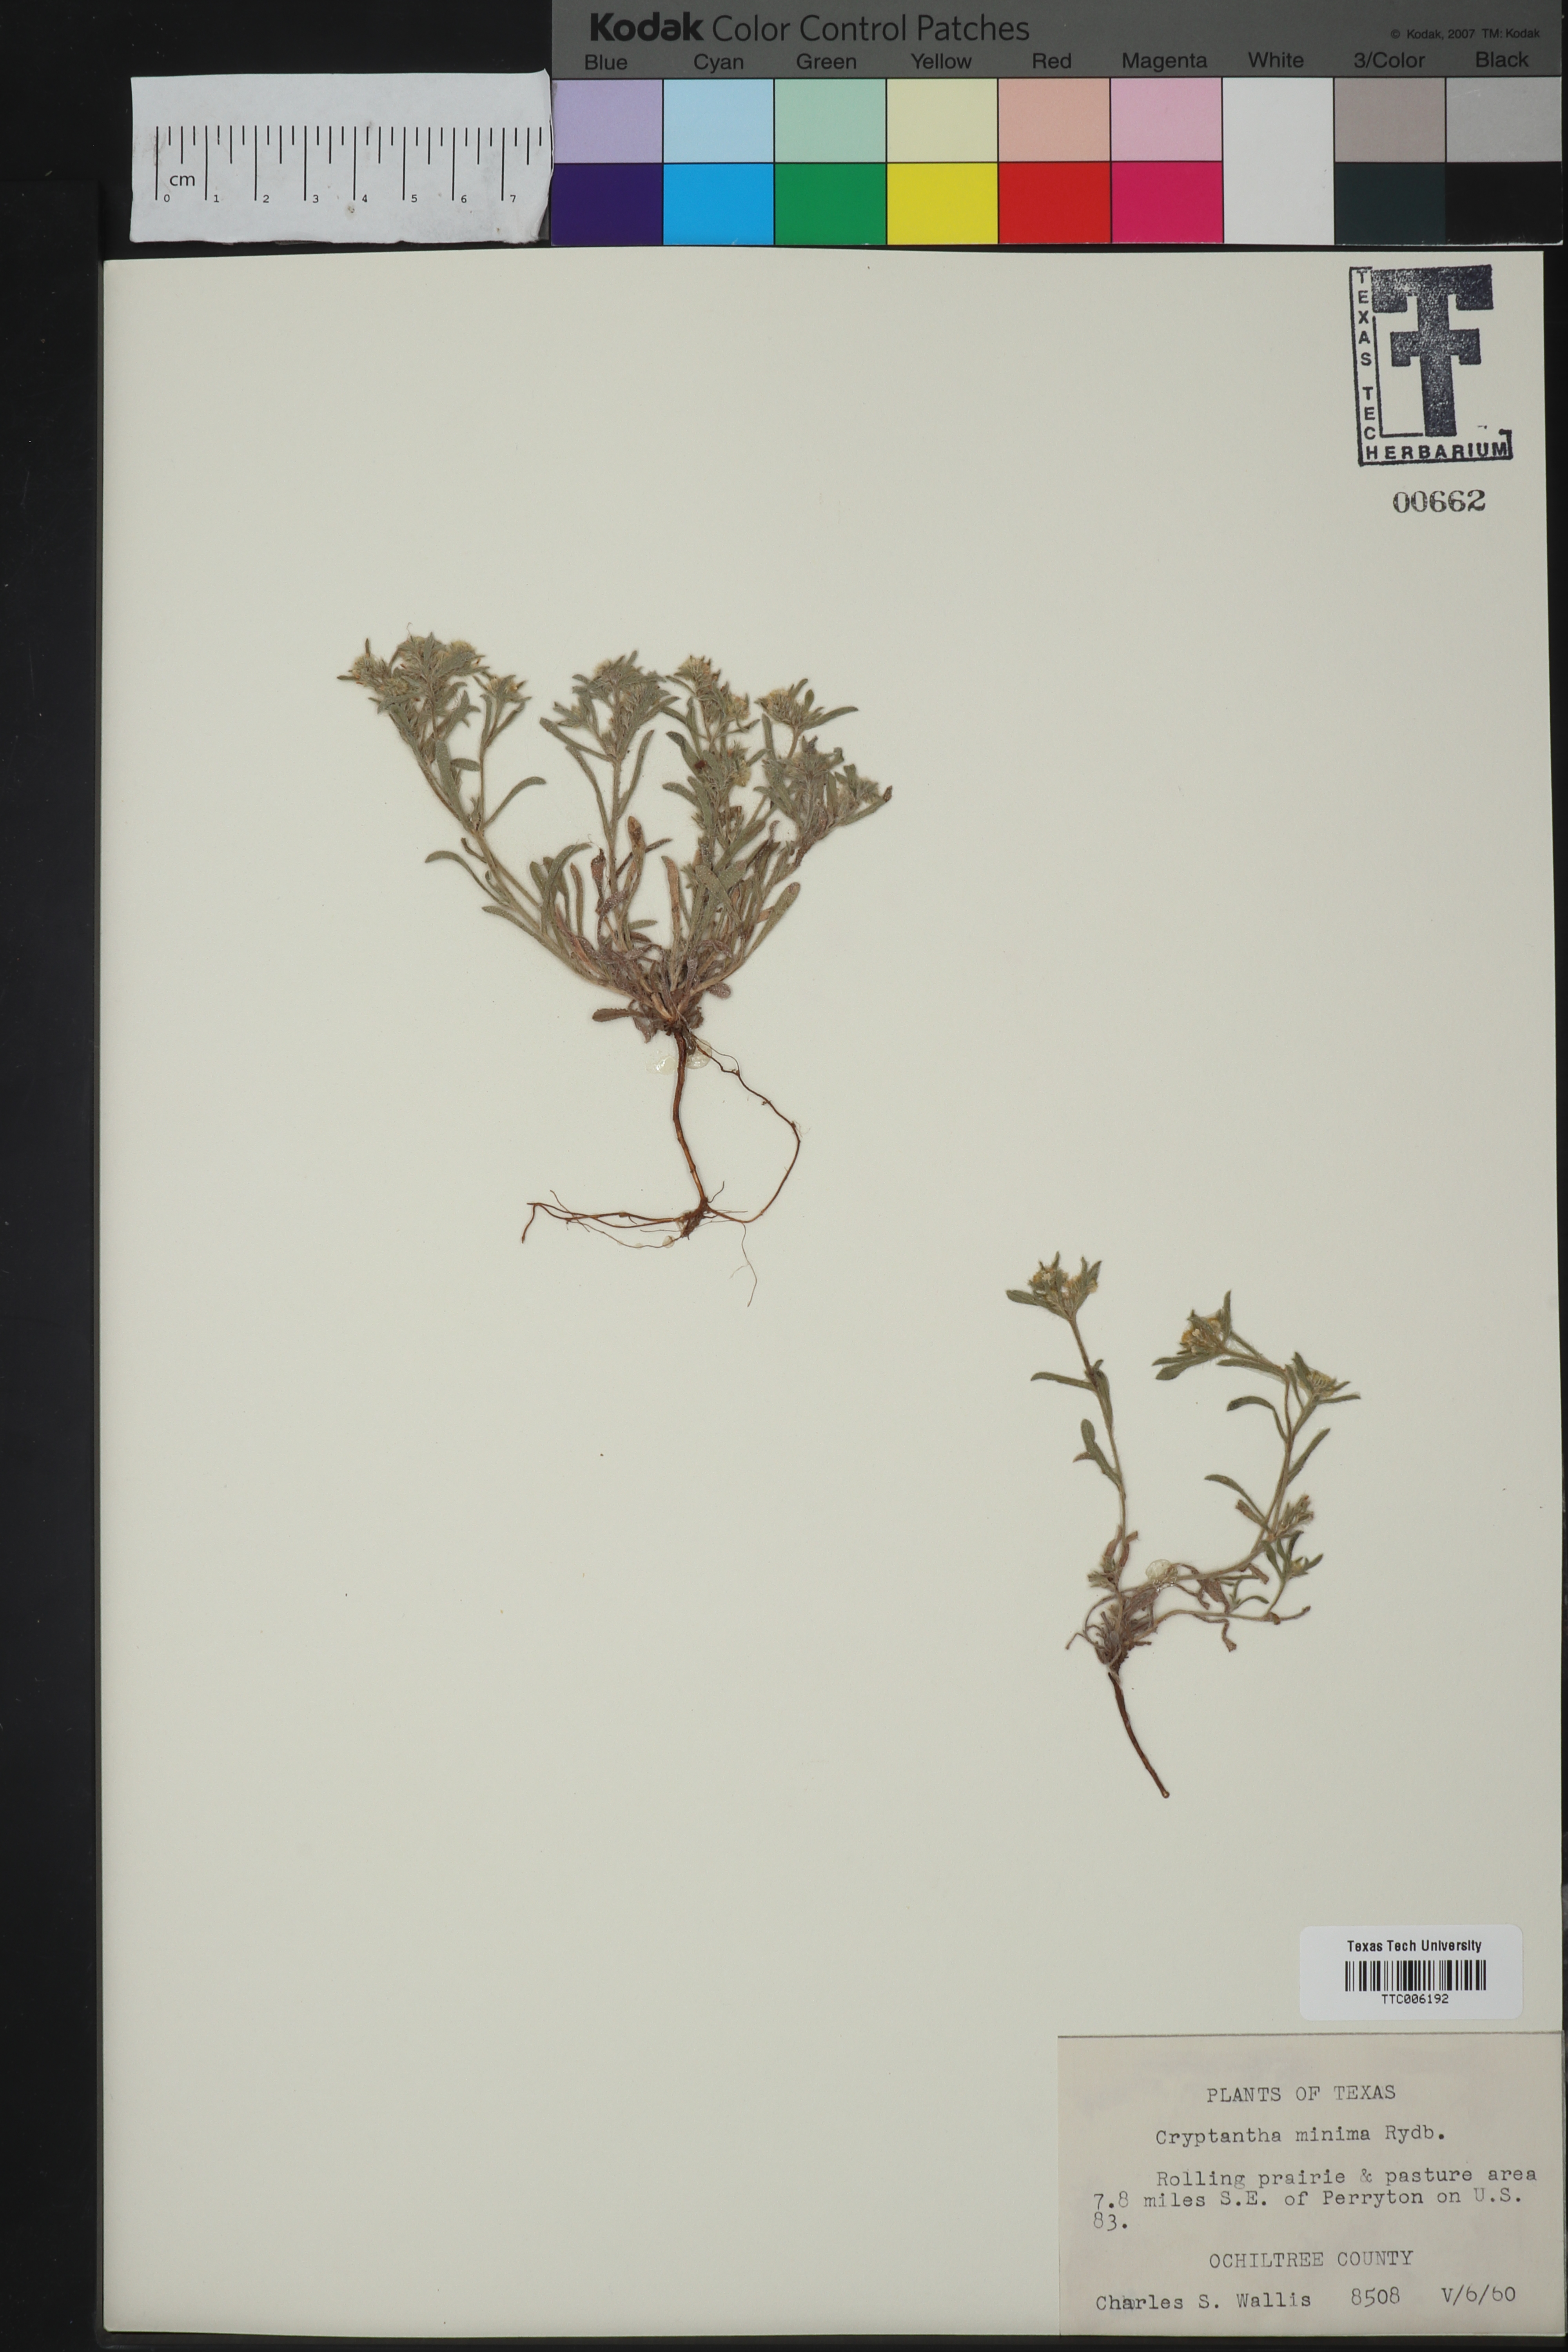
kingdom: Plantae
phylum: Tracheophyta
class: Magnoliopsida
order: Boraginales
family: Boraginaceae
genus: Cryptantha
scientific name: Cryptantha minima
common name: Little cat's-eye
